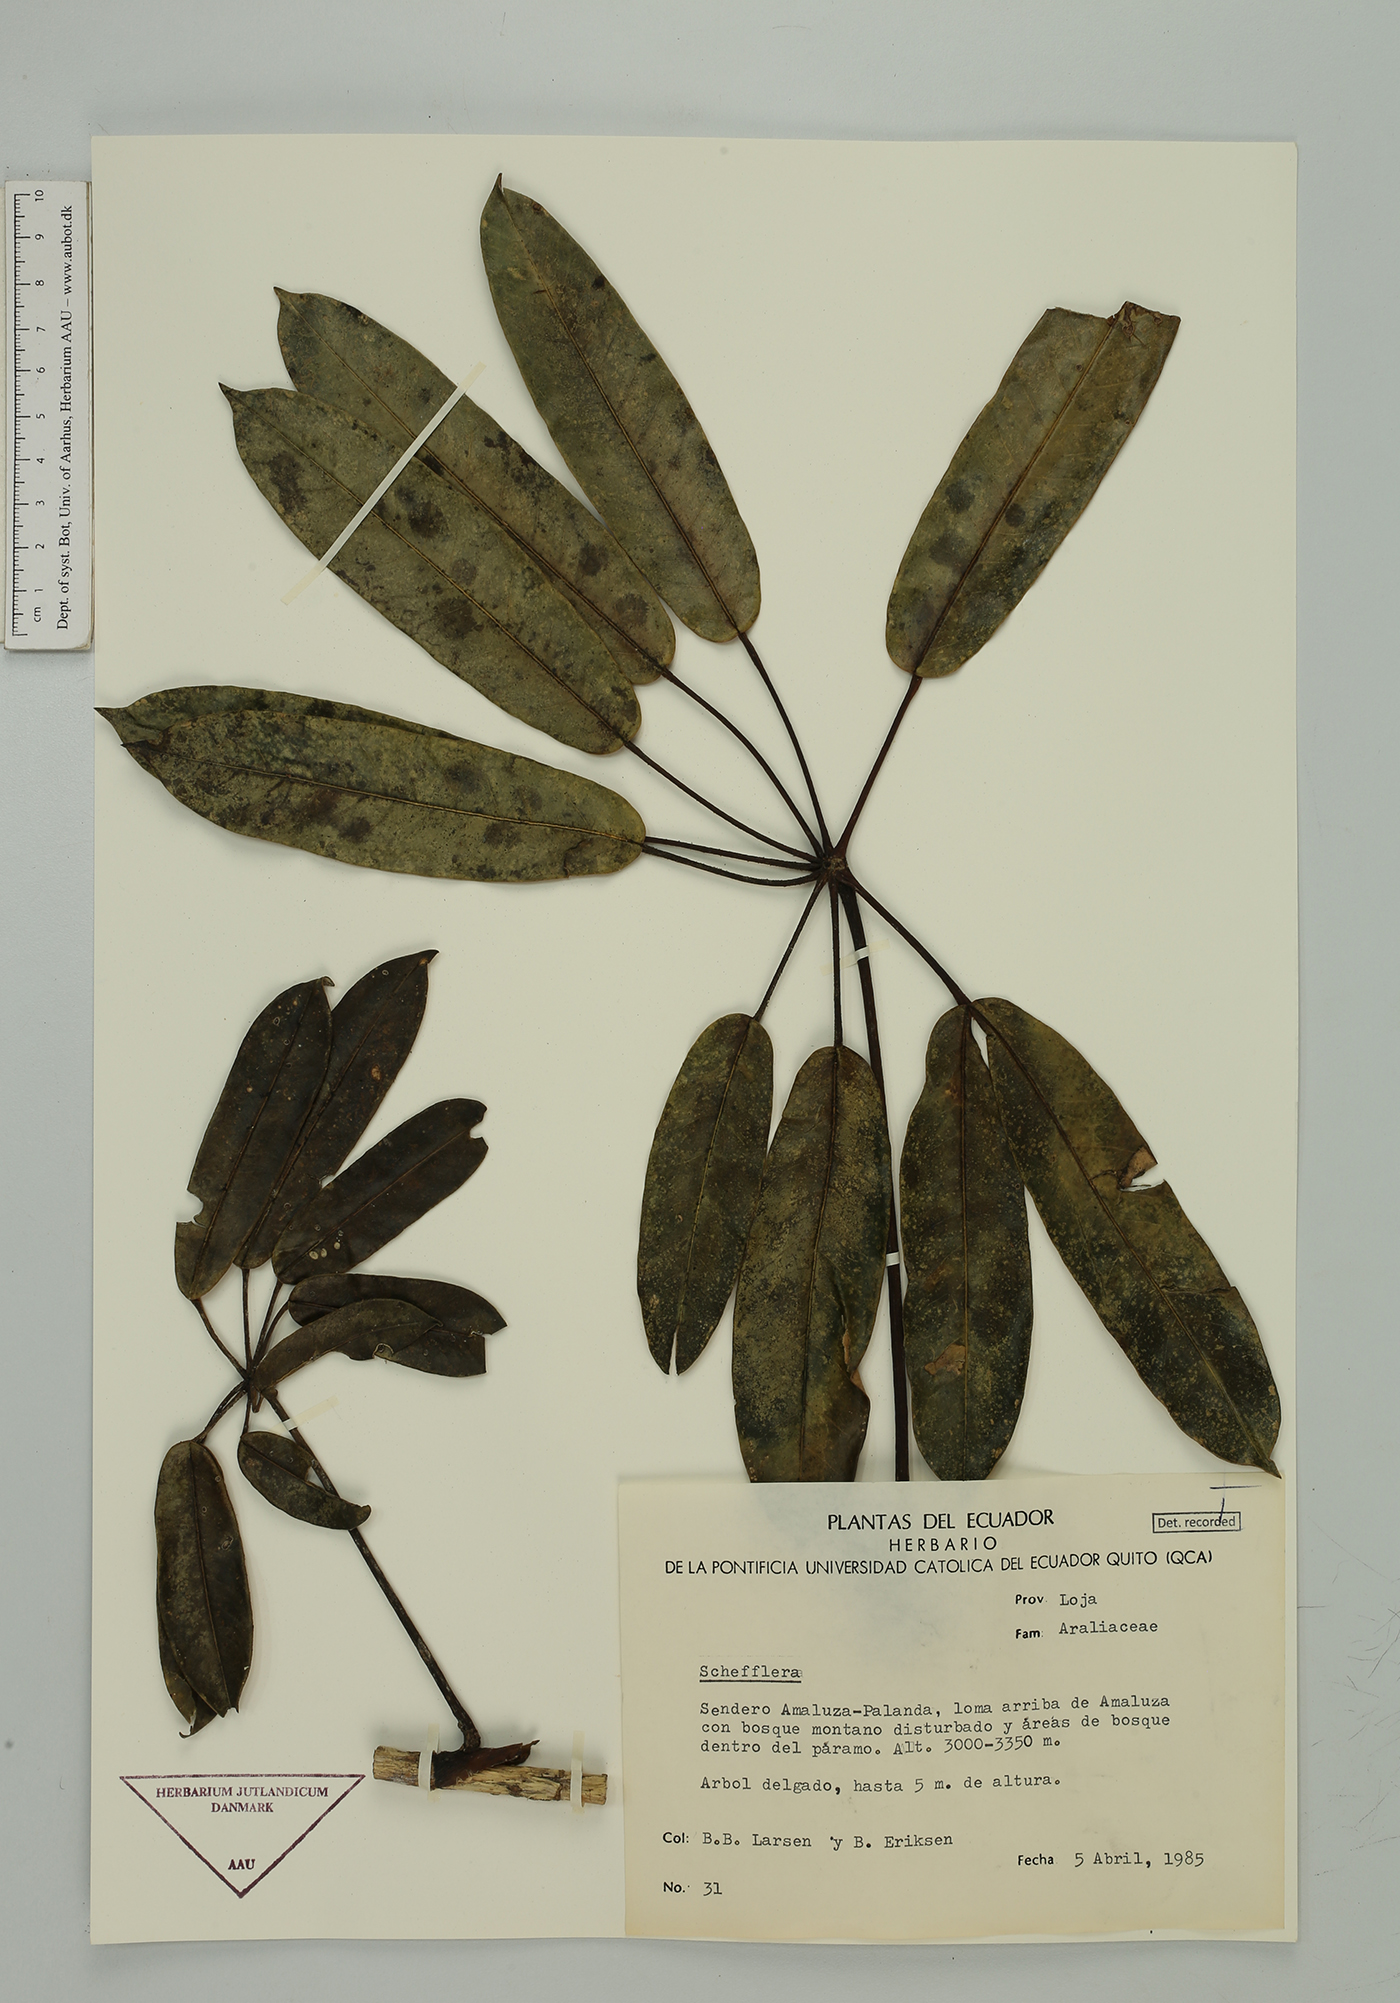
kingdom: Plantae
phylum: Tracheophyta
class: Magnoliopsida
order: Apiales
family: Araliaceae
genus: Sciodaphyllum
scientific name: Sciodaphyllum
